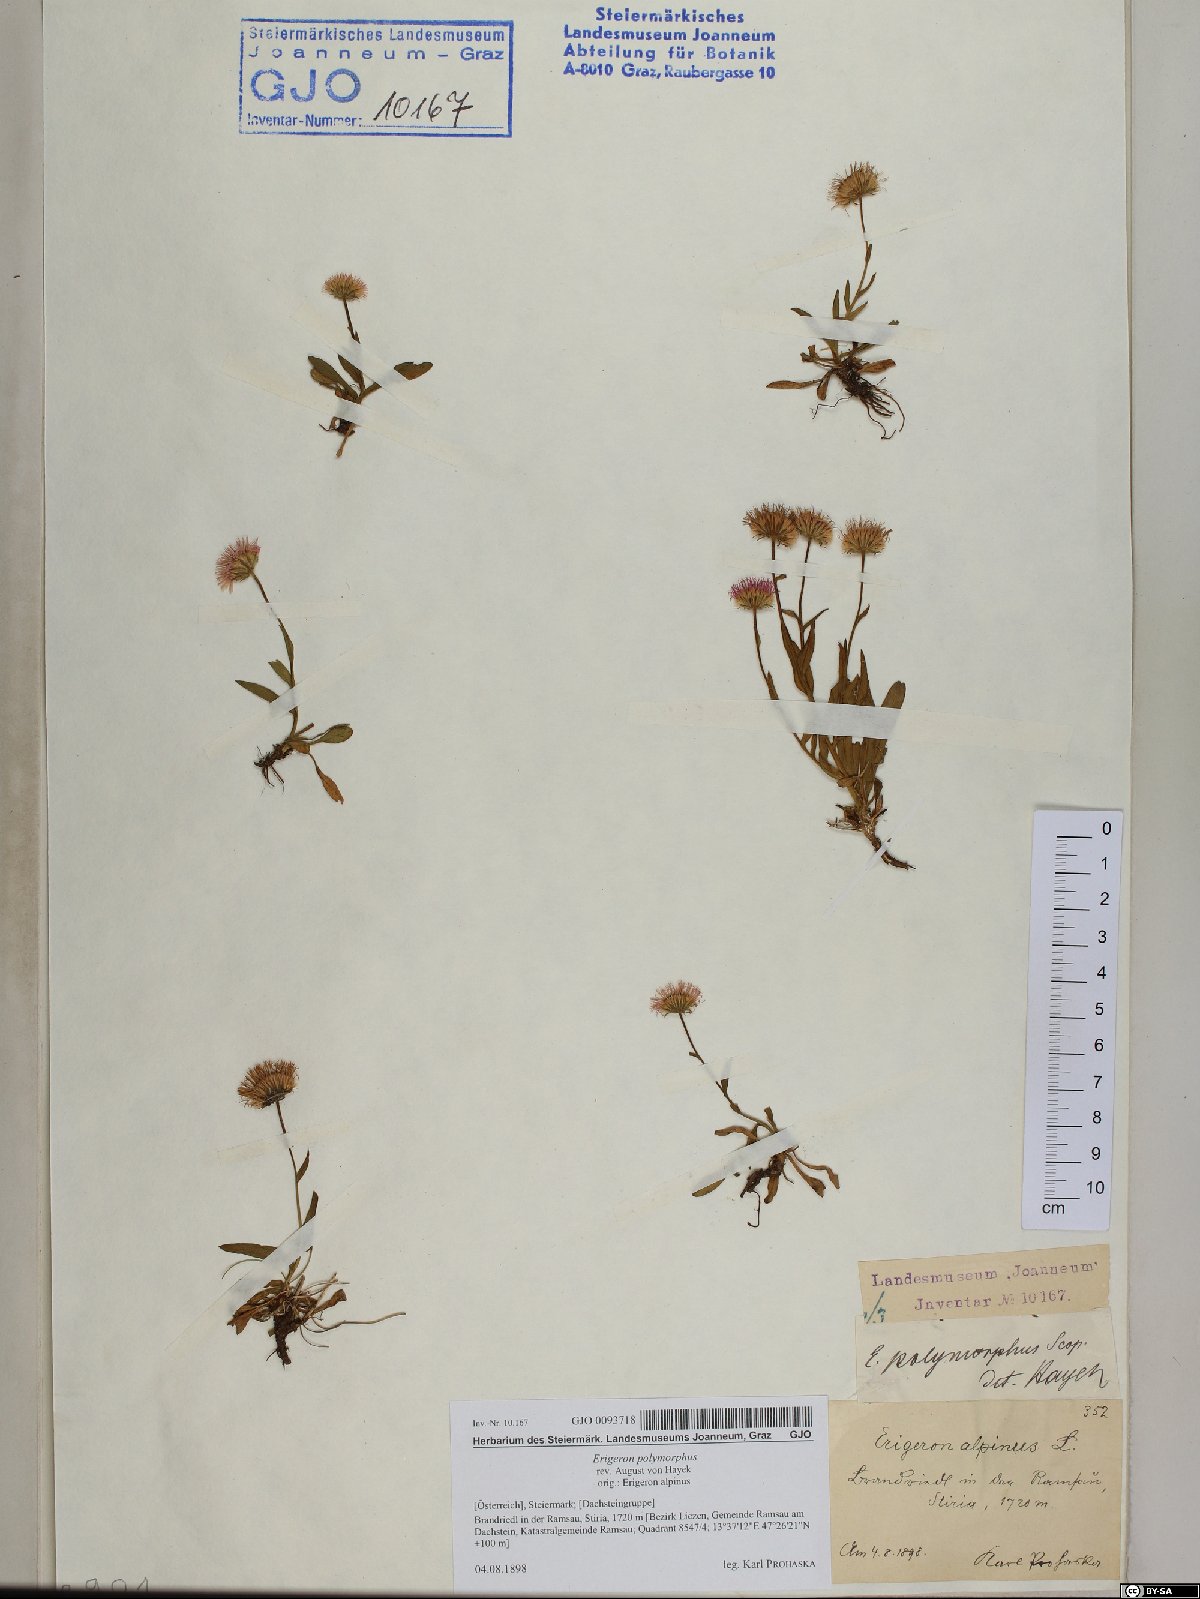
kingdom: Plantae
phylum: Tracheophyta
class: Magnoliopsida
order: Asterales
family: Asteraceae
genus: Erigeron
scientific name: Erigeron alpinus
